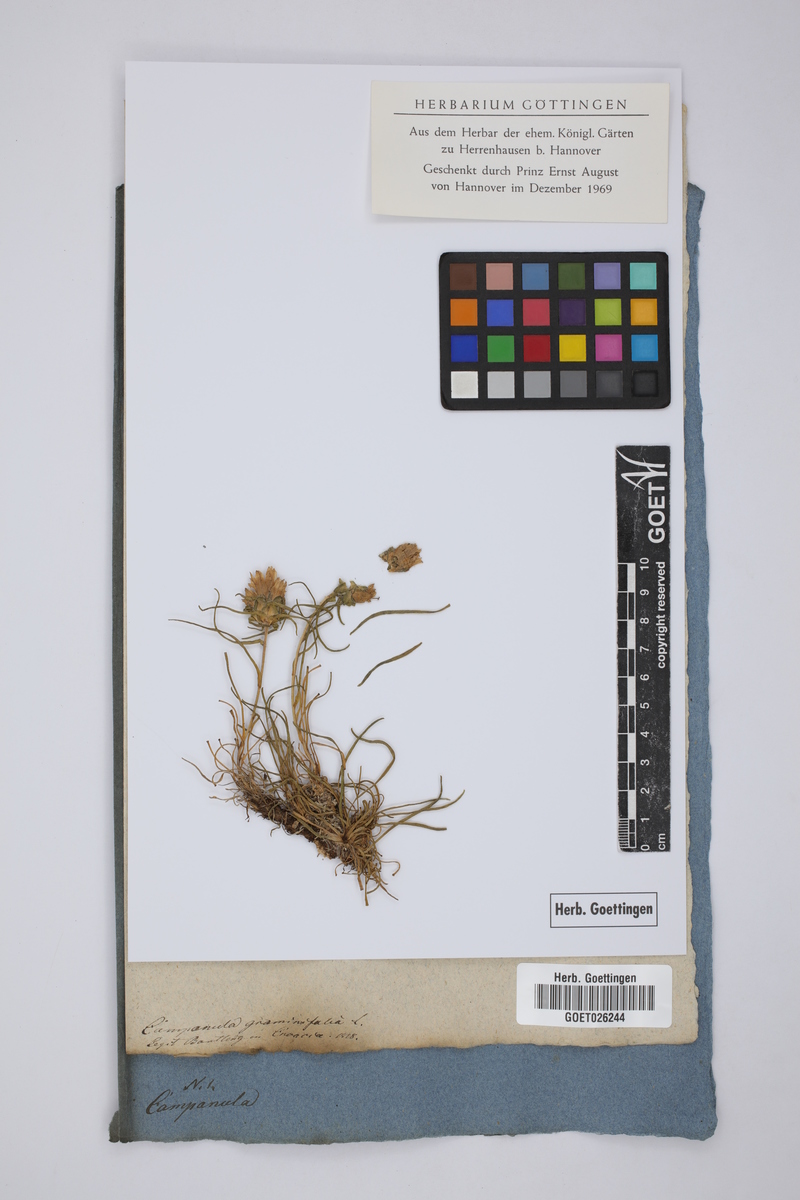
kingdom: Plantae
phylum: Tracheophyta
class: Magnoliopsida
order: Asterales
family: Campanulaceae
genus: Edraianthus
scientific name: Edraianthus graminifolius
